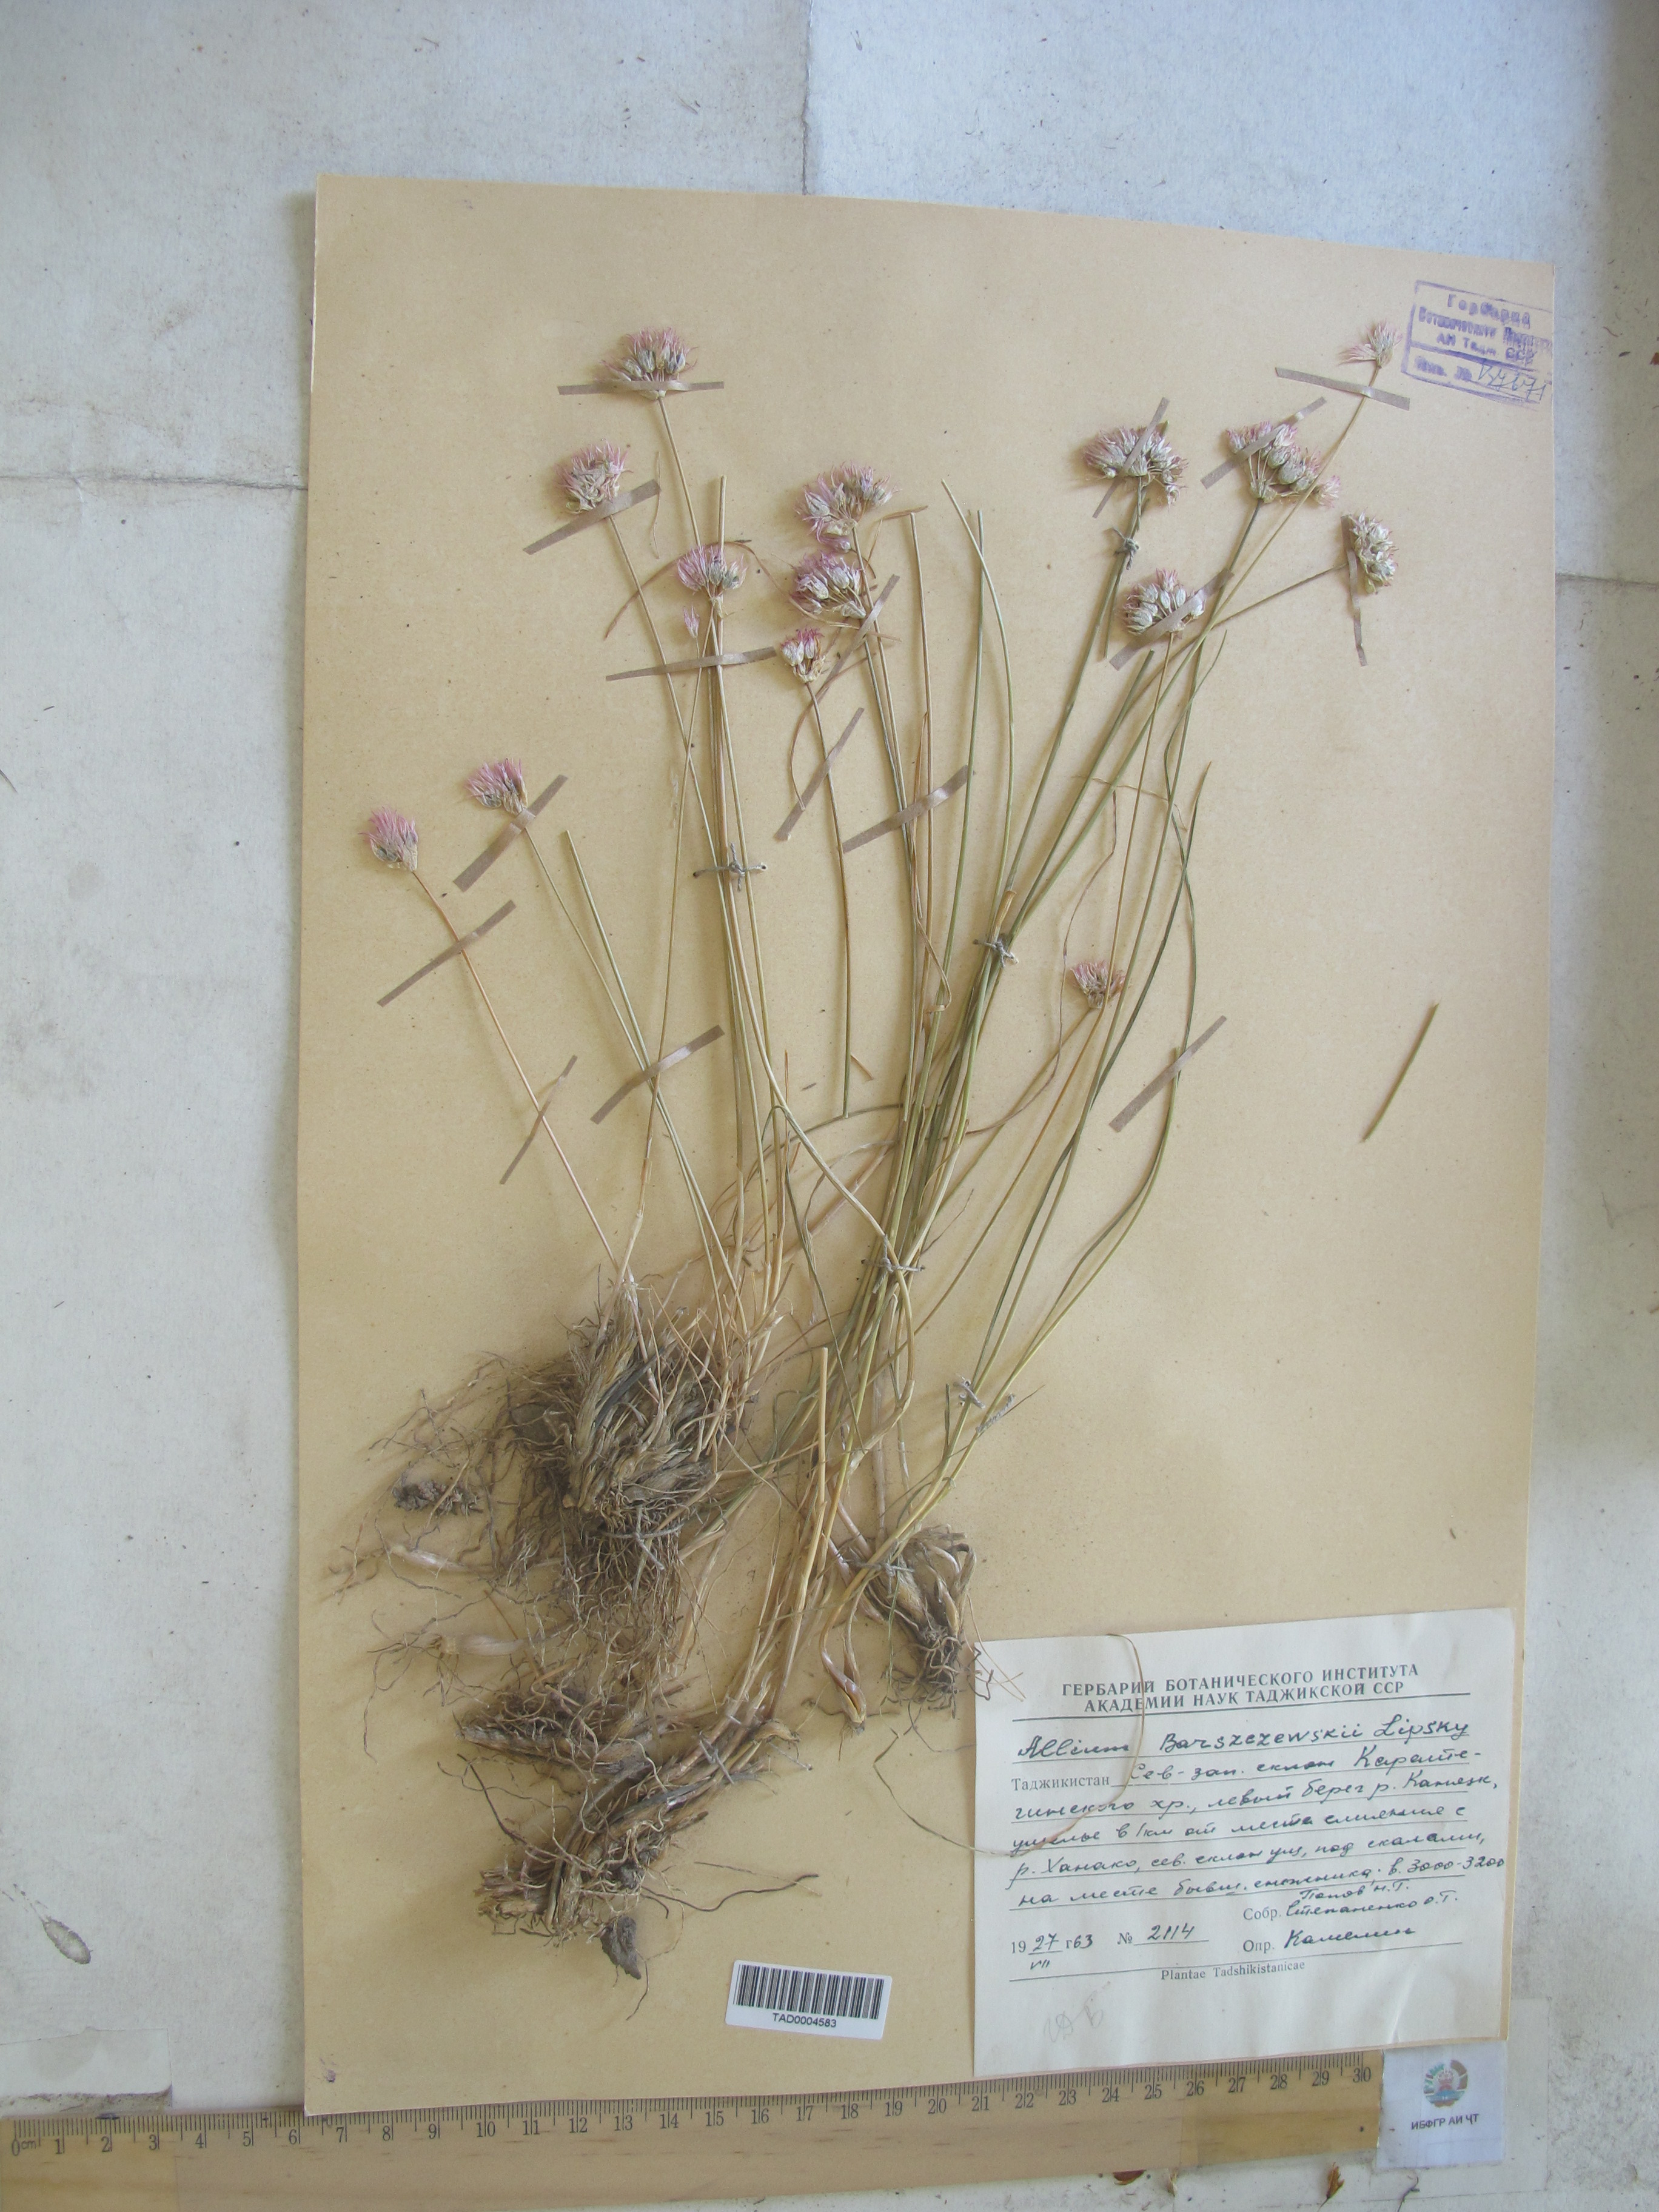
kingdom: Plantae
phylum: Tracheophyta
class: Liliopsida
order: Asparagales
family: Amaryllidaceae
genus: Allium
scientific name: Allium barsczewskii
